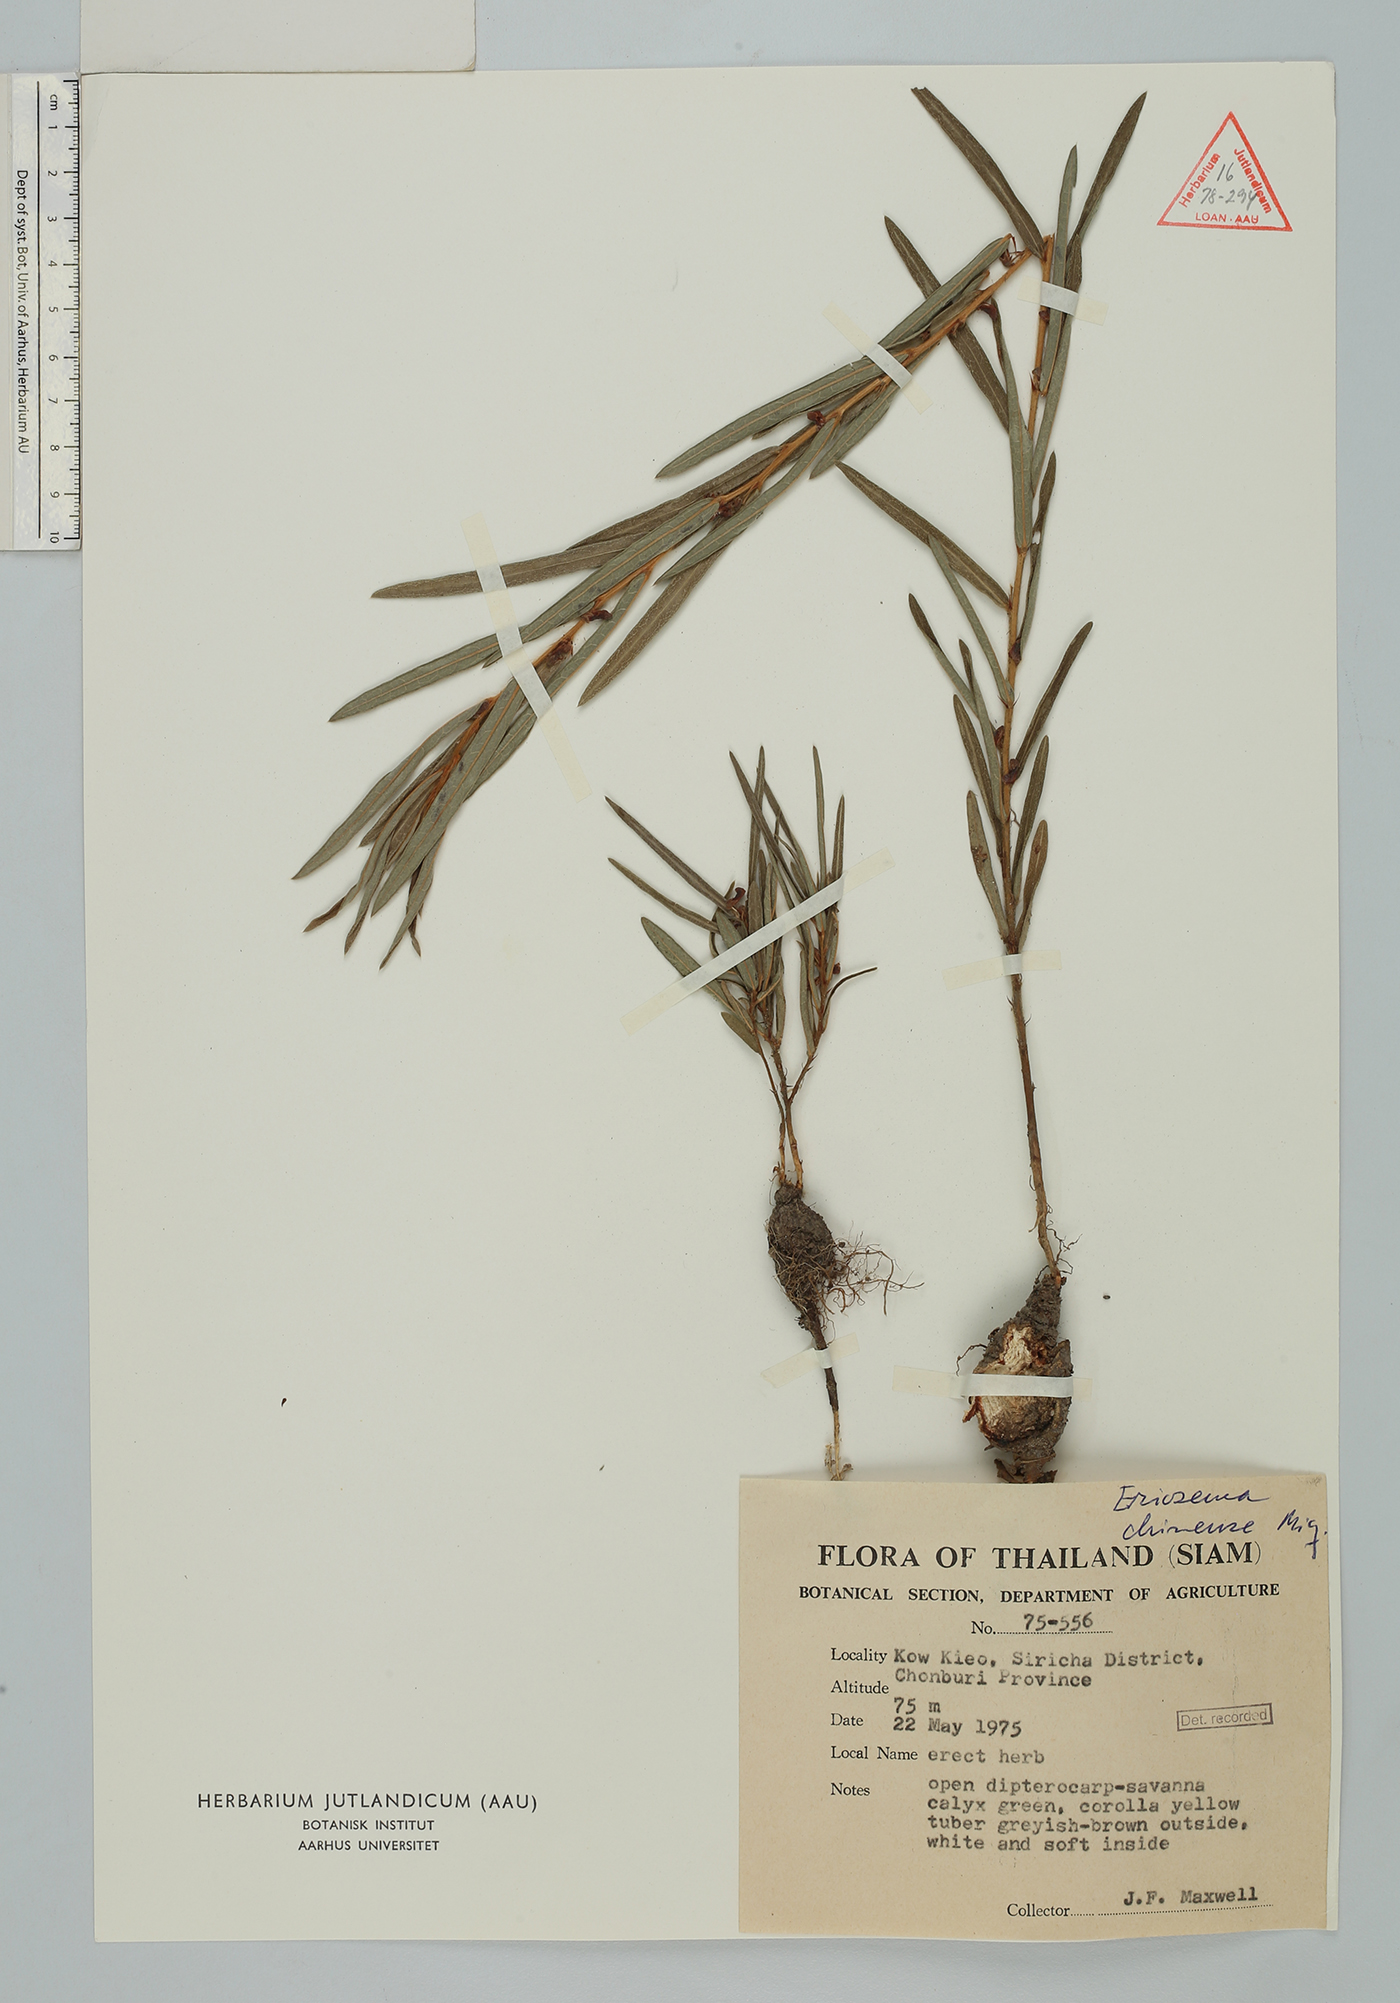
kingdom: Plantae
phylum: Tracheophyta
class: Magnoliopsida
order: Fabales
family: Fabaceae
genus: Eriosema
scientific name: Eriosema chinense
